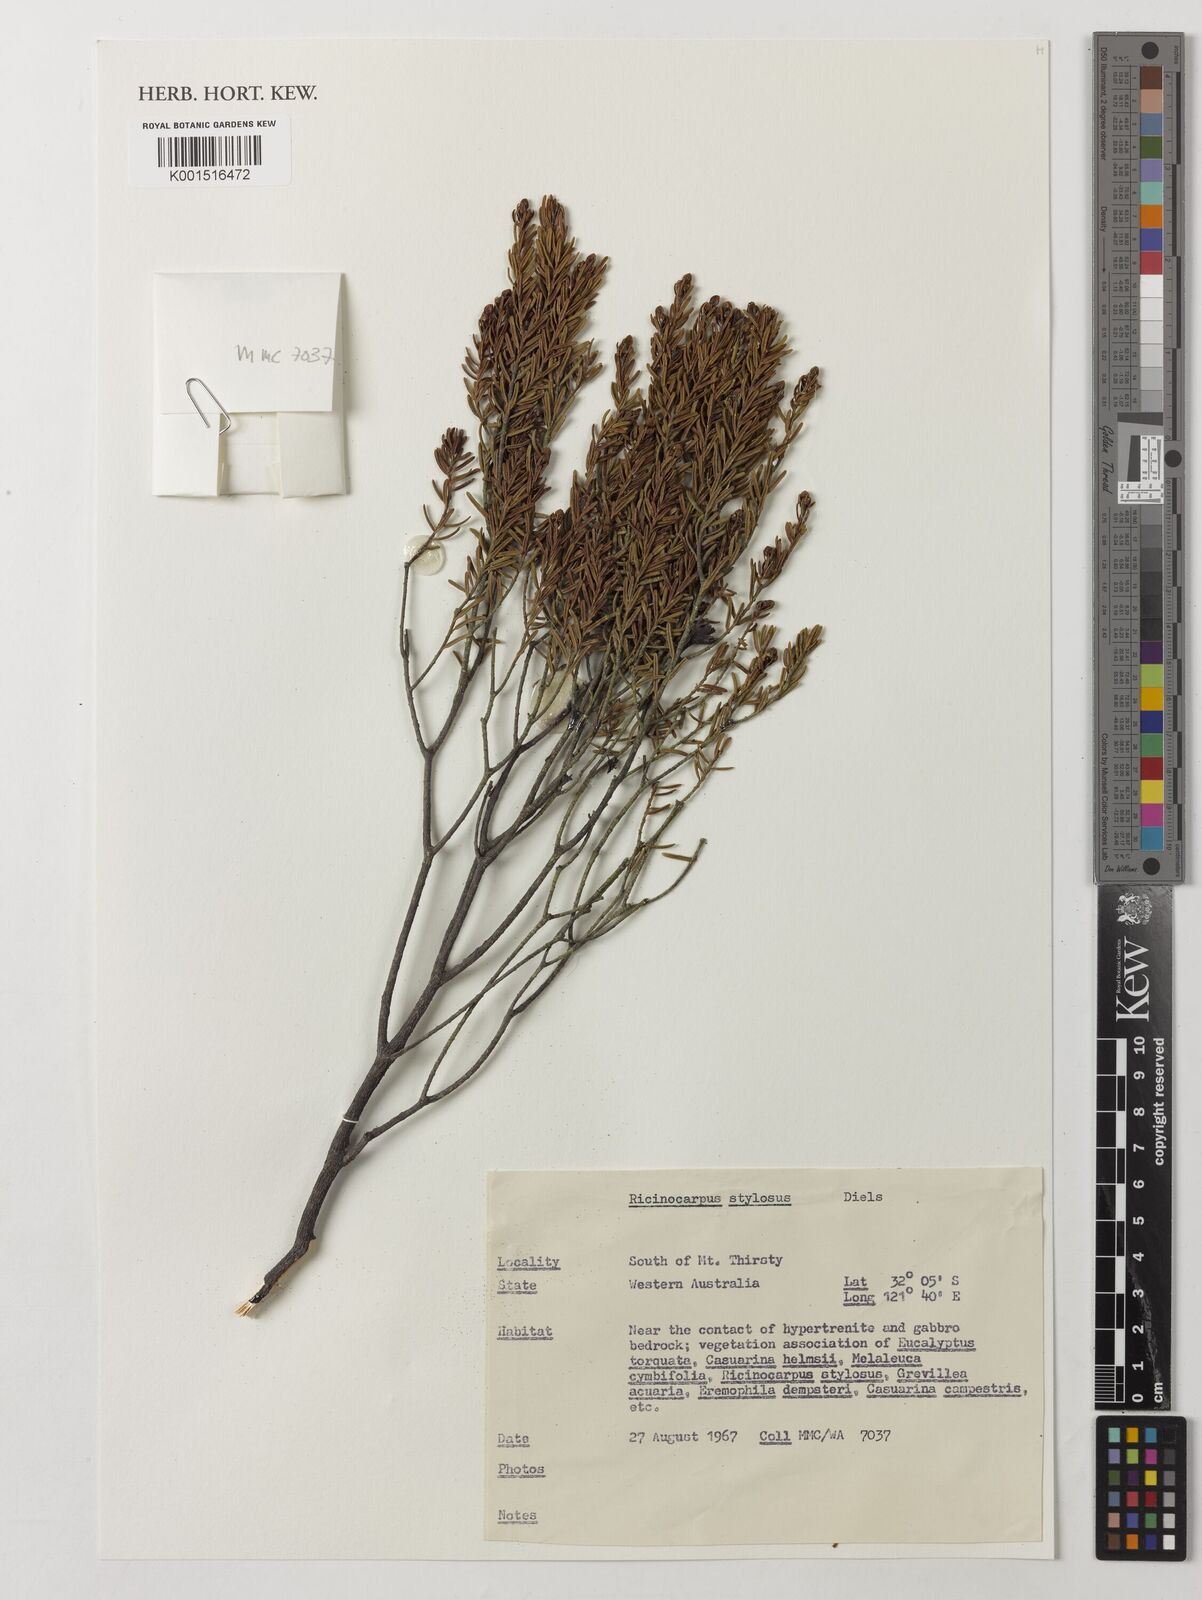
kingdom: Plantae
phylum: Tracheophyta
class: Magnoliopsida
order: Malpighiales
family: Euphorbiaceae
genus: Ricinocarpos
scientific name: Ricinocarpos stylosus
